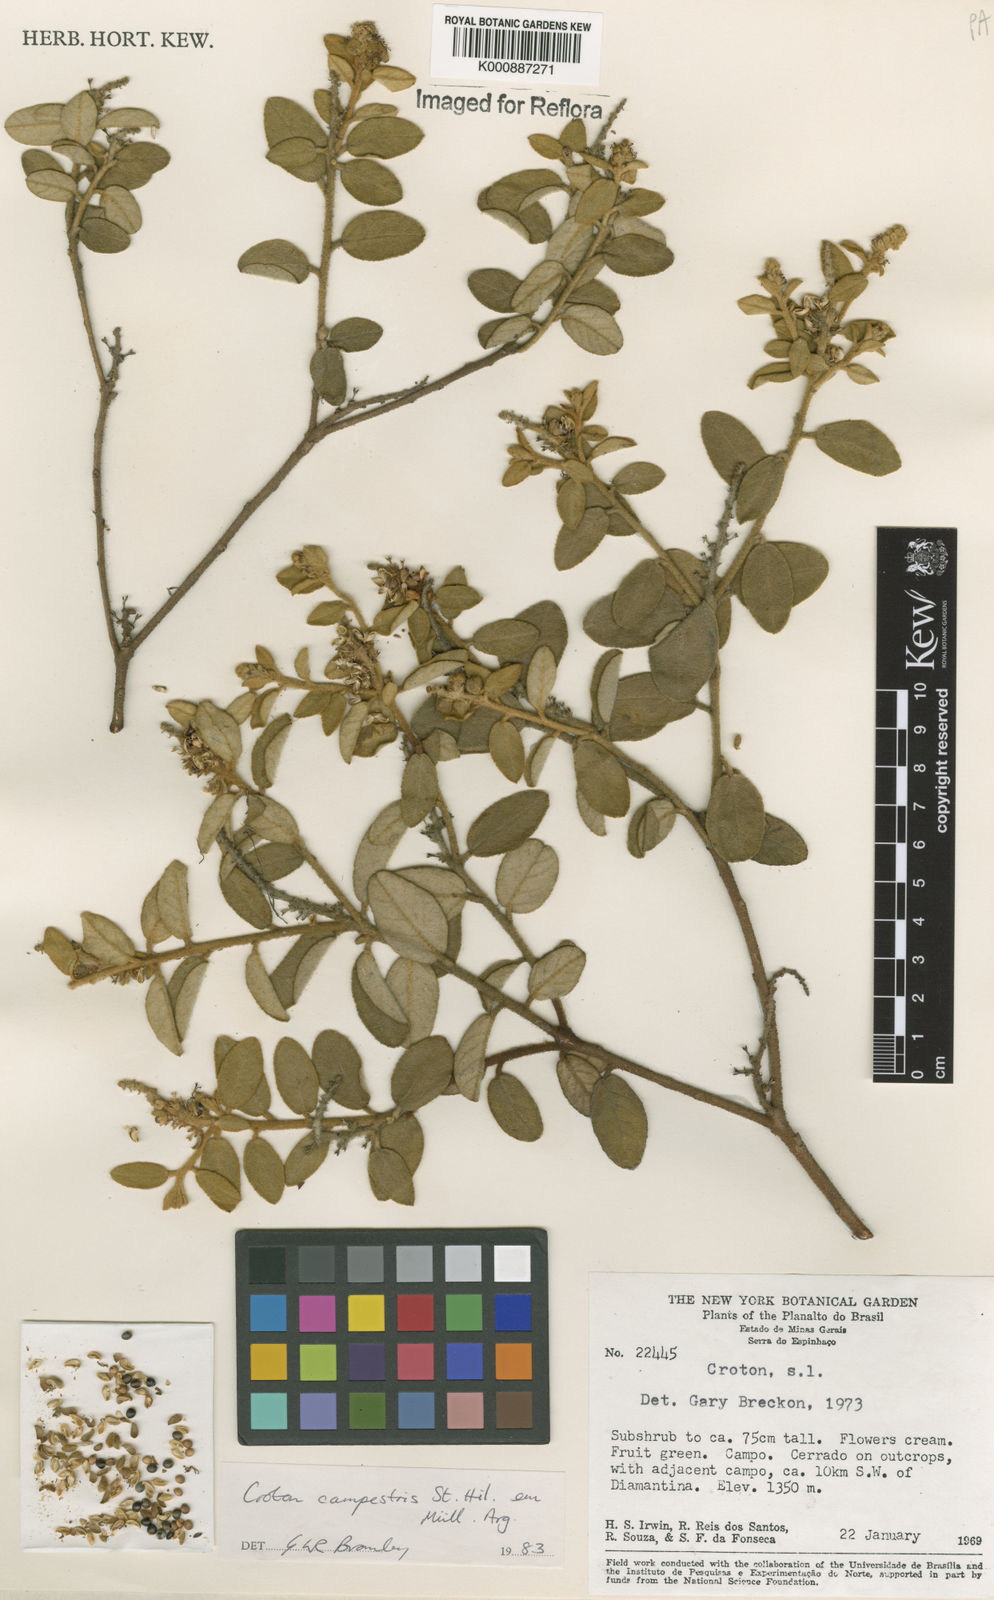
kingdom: Plantae
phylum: Tracheophyta
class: Magnoliopsida
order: Malpighiales
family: Euphorbiaceae
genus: Croton
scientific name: Croton campestris
